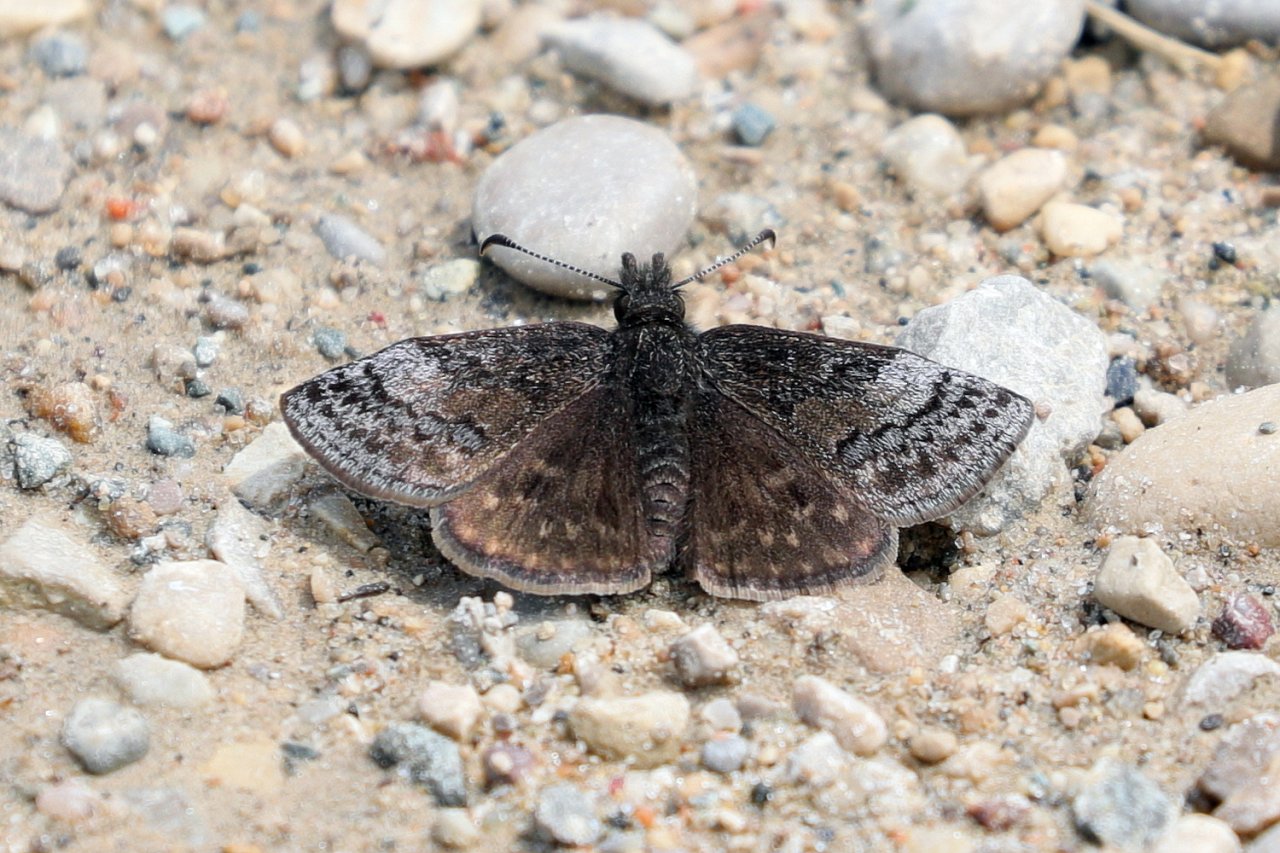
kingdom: Animalia
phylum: Arthropoda
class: Insecta
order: Lepidoptera
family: Hesperiidae
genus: Erynnis
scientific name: Erynnis icelus
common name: Dreamy Duskywing
